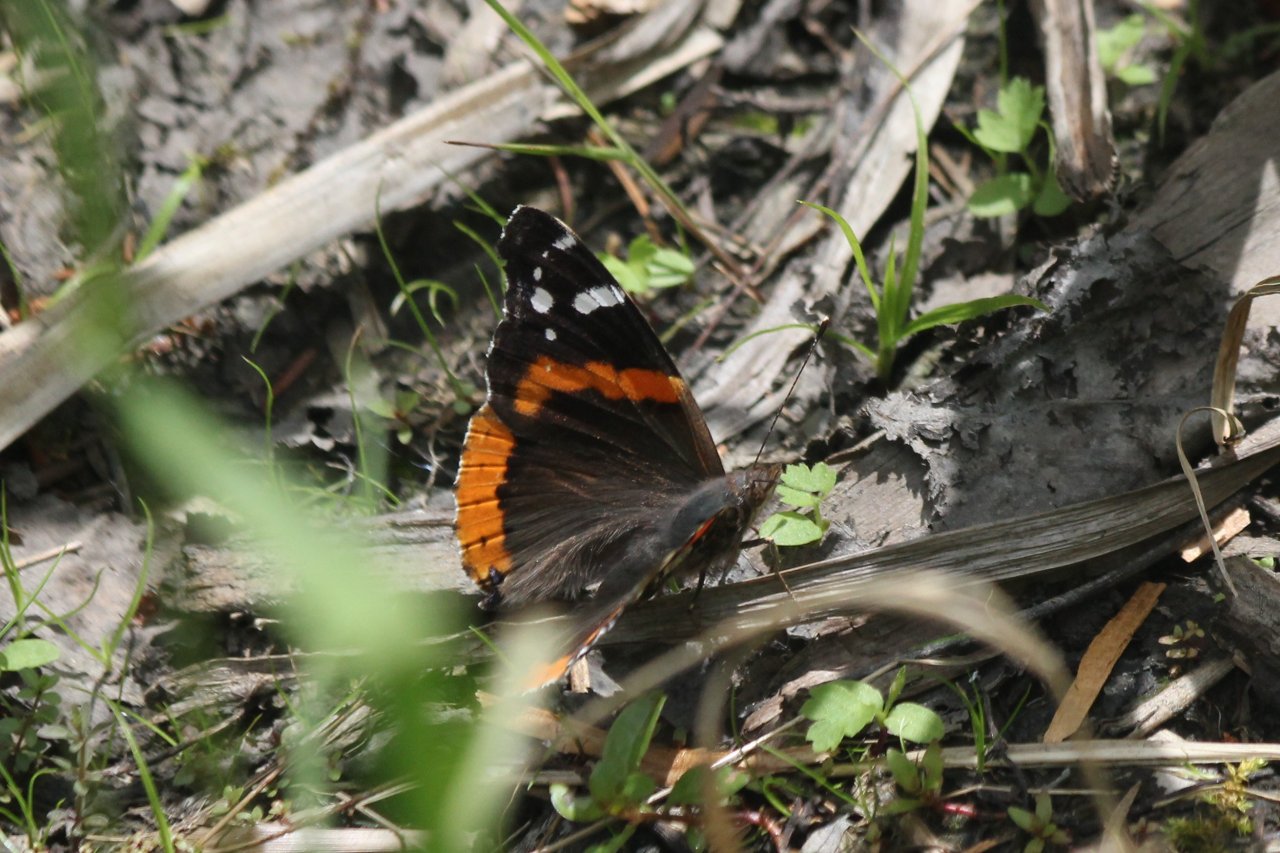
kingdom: Animalia
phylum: Arthropoda
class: Insecta
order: Lepidoptera
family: Nymphalidae
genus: Vanessa
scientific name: Vanessa atalanta
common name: Red Admiral
